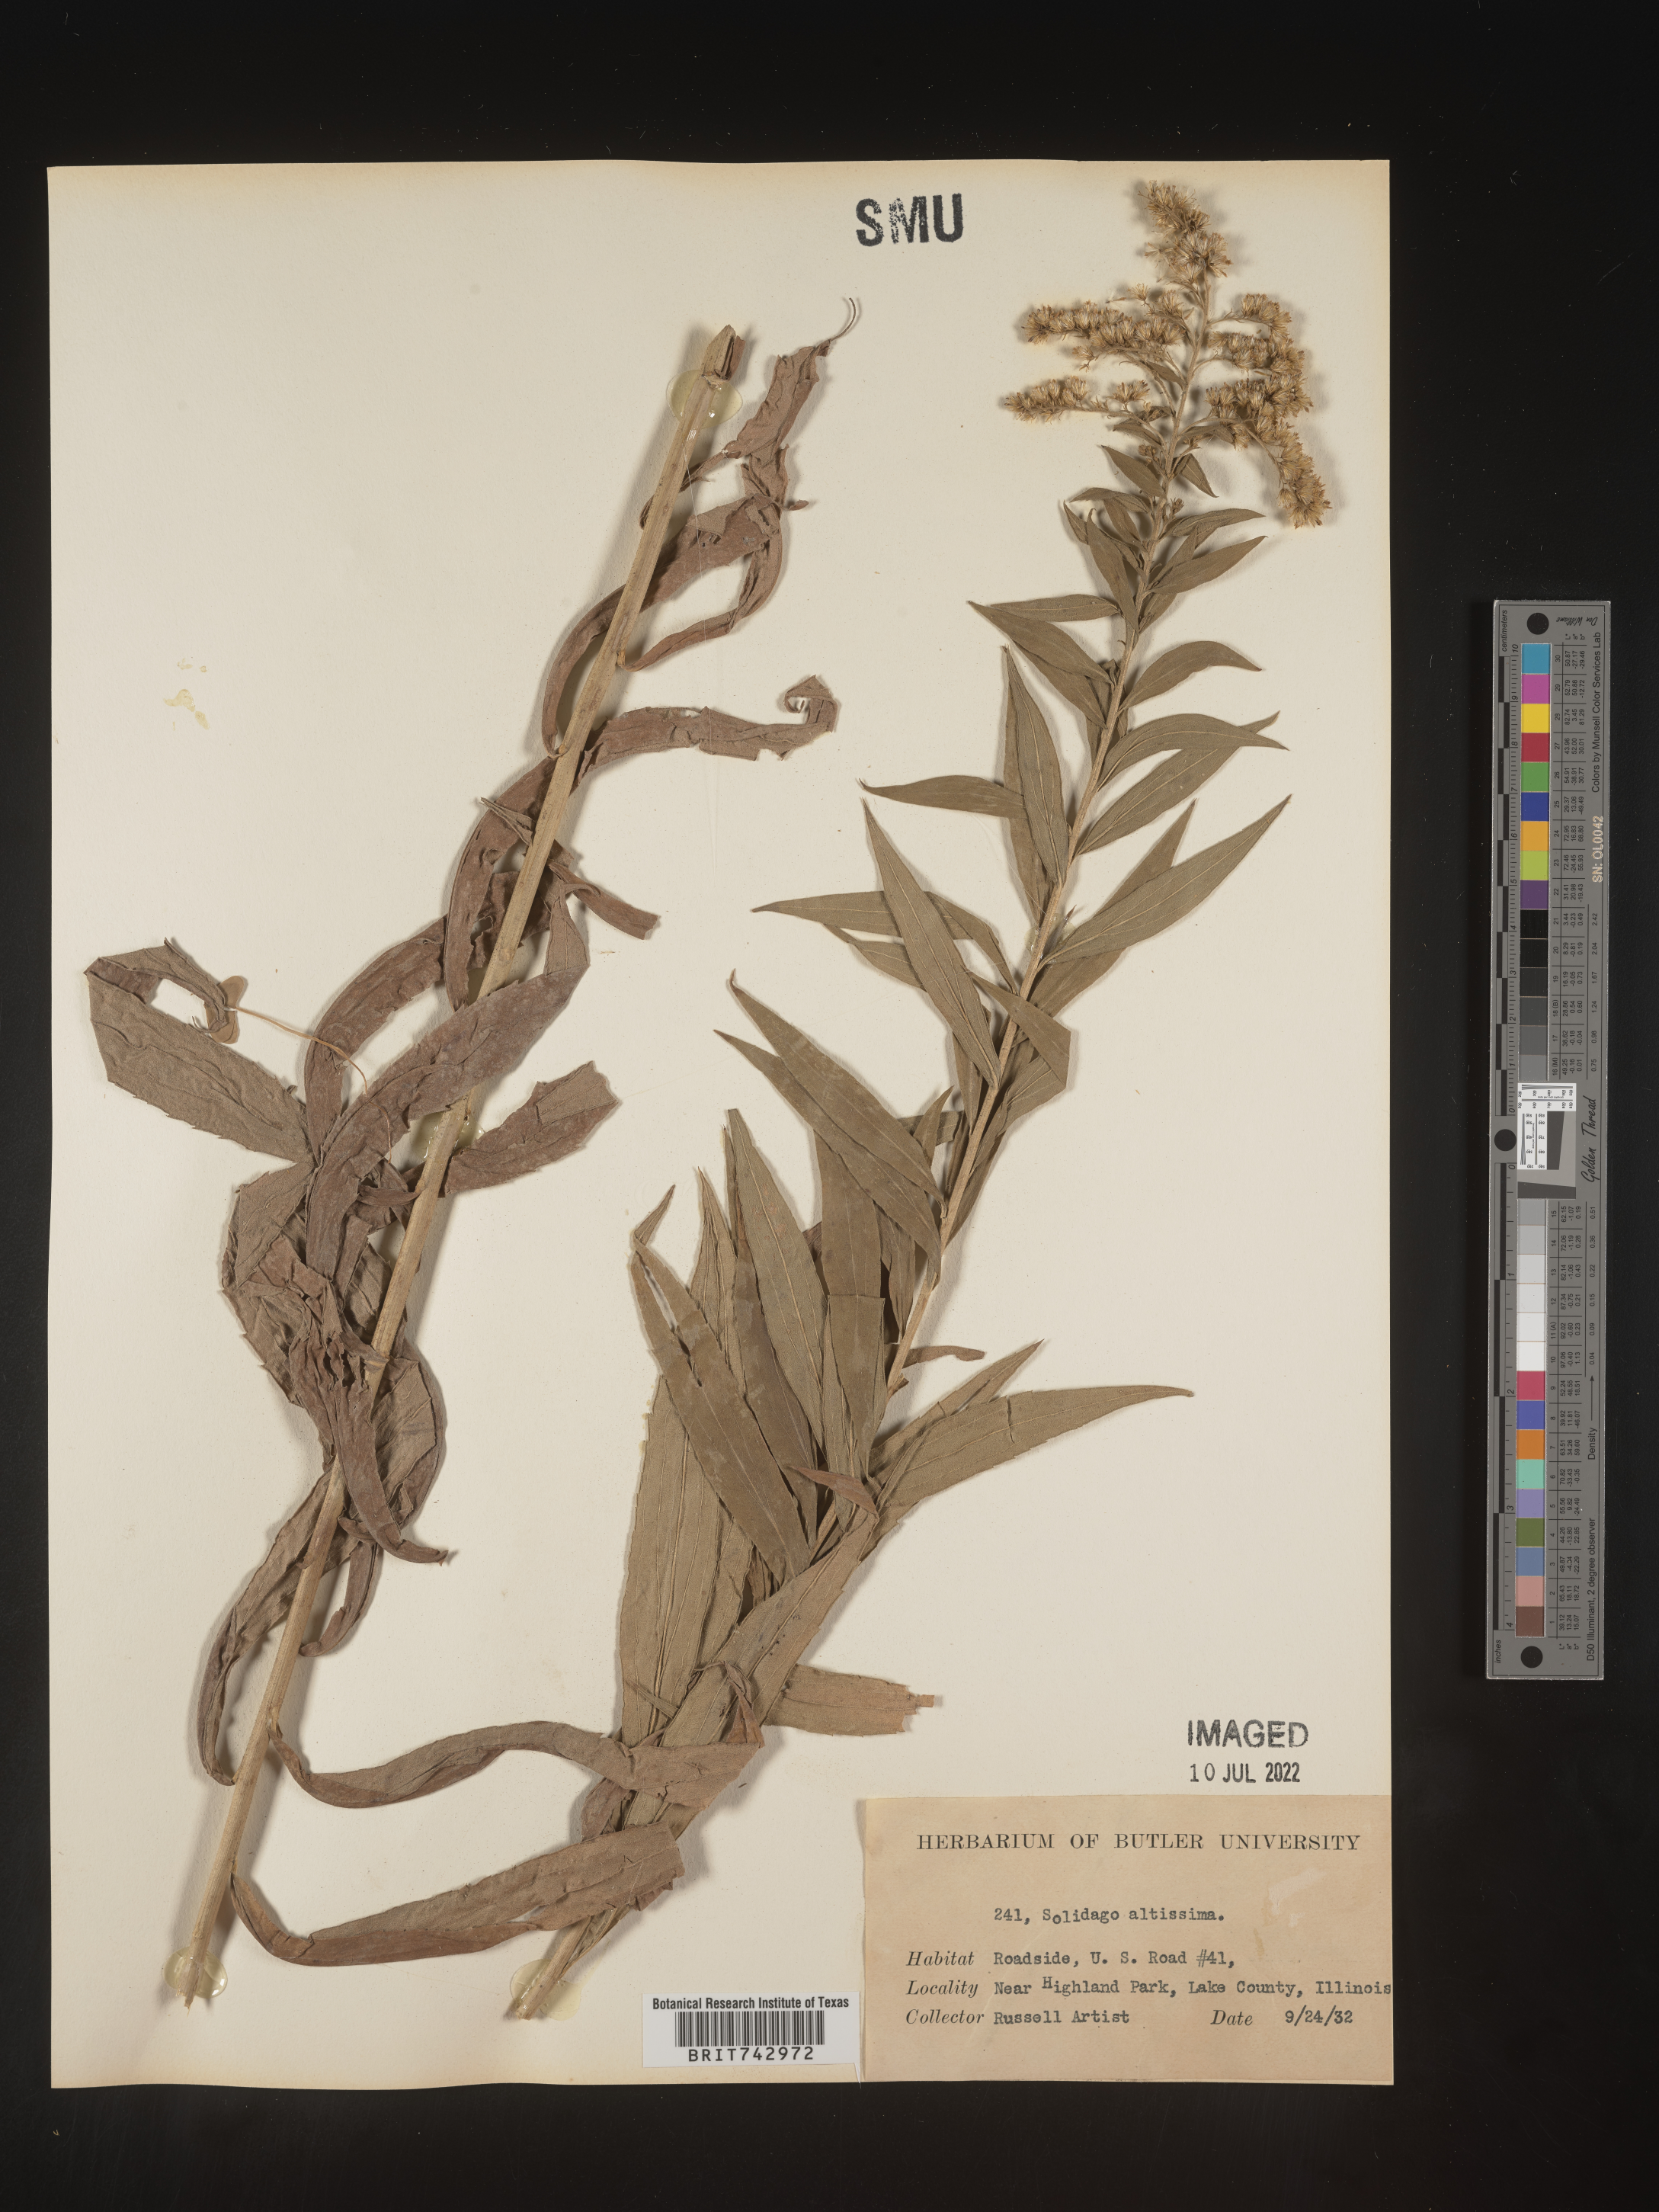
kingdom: Plantae
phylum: Tracheophyta
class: Magnoliopsida
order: Asterales
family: Asteraceae
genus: Solidago
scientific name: Solidago altissima
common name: Late goldenrod
